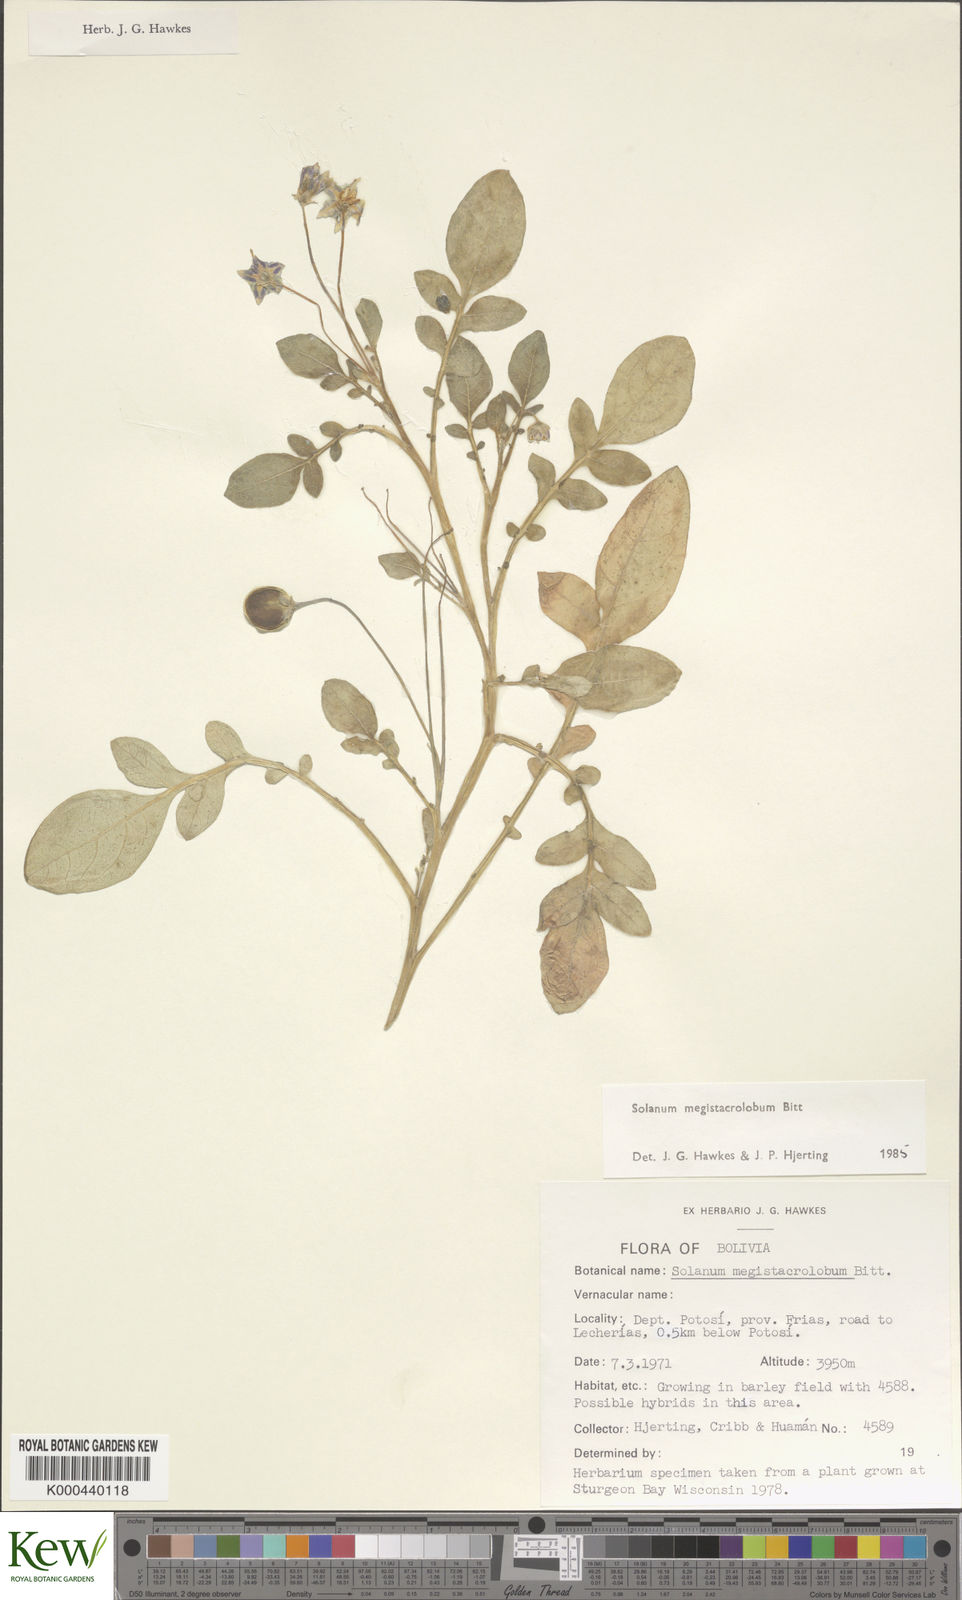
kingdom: Plantae
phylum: Tracheophyta
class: Magnoliopsida
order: Solanales
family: Solanaceae
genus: Solanum
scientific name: Solanum boliviense
